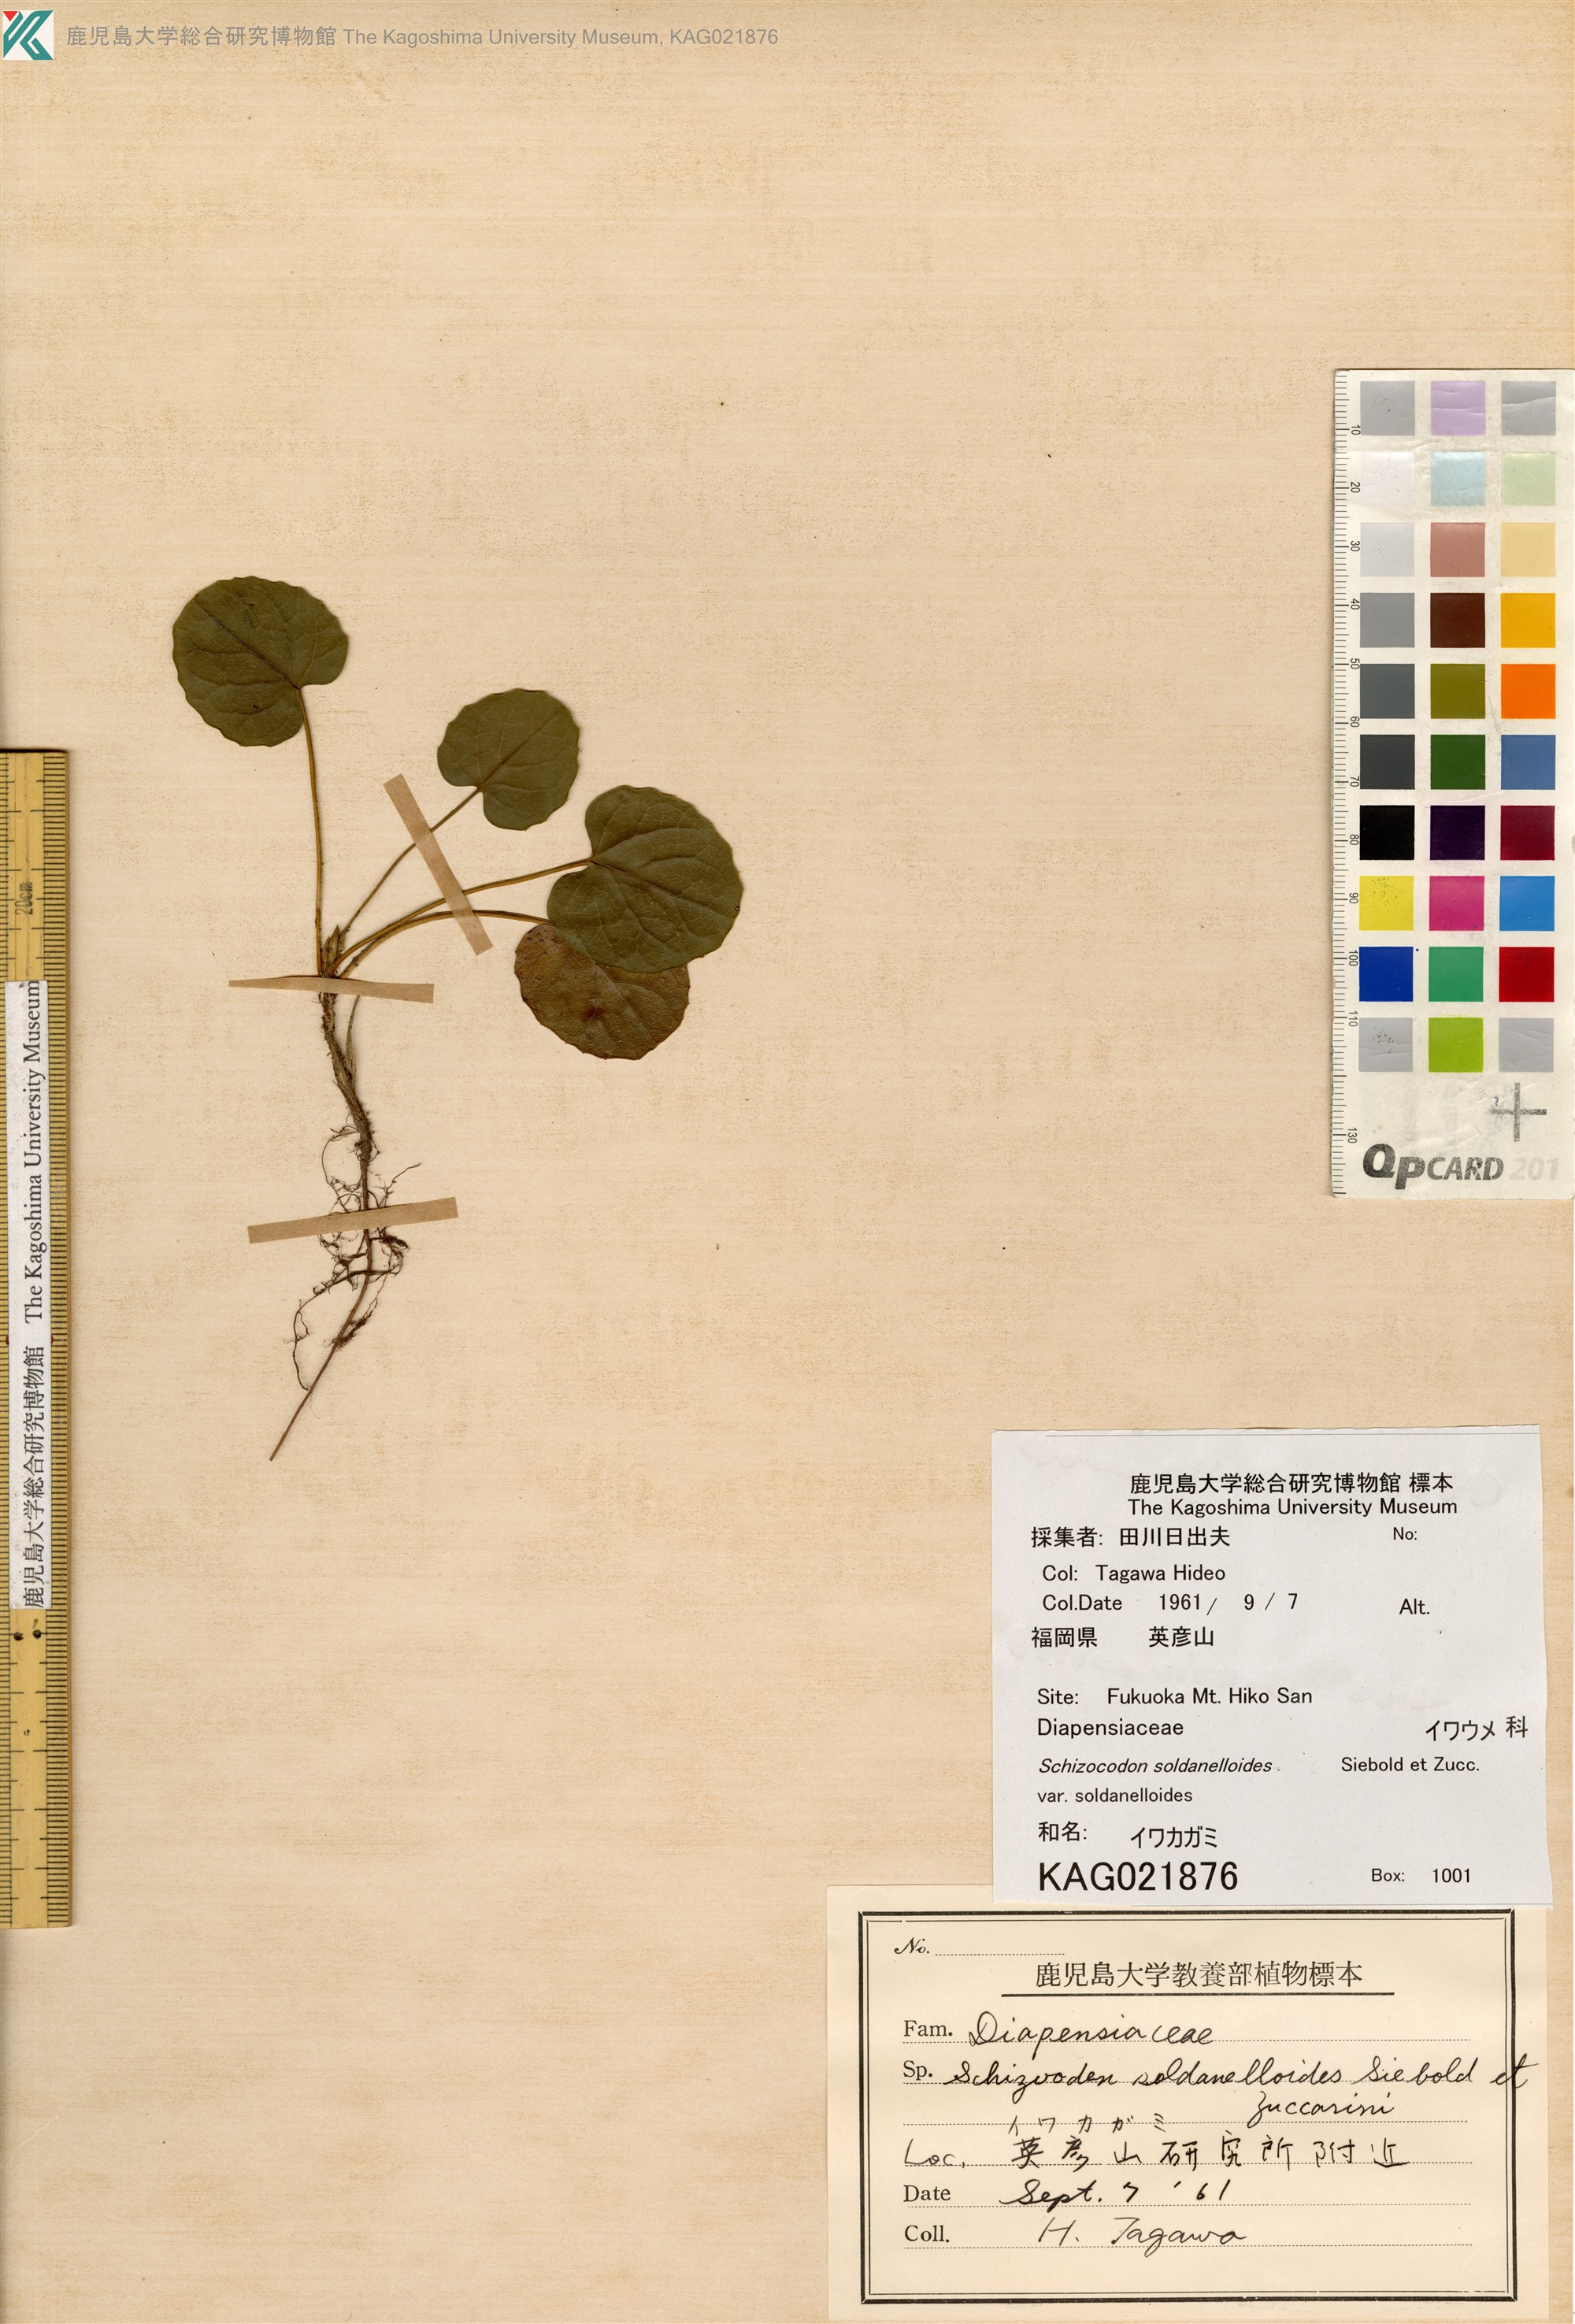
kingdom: Plantae
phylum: Tracheophyta
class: Magnoliopsida
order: Ericales
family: Diapensiaceae
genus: Schizocodon
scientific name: Schizocodon soldanelloides
